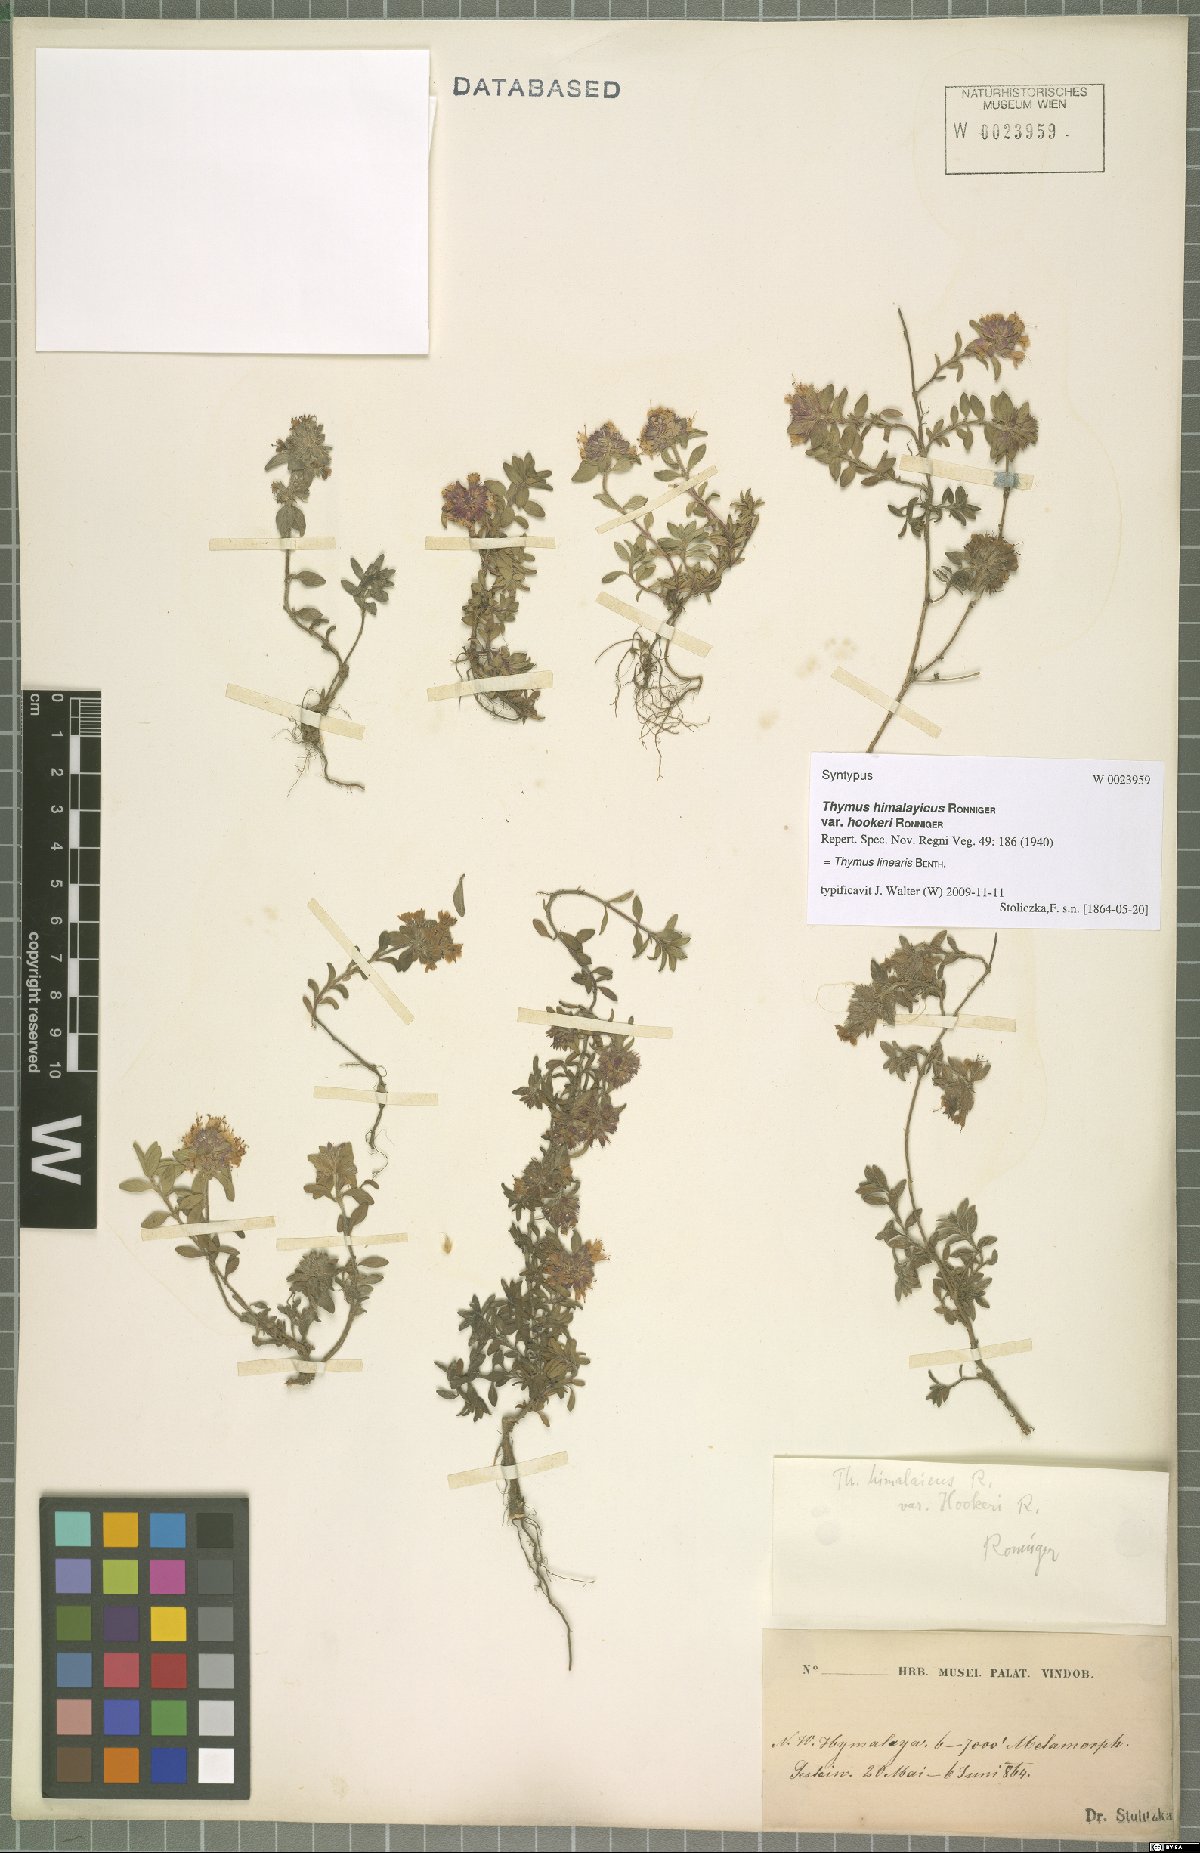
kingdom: Plantae
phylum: Tracheophyta
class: Magnoliopsida
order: Lamiales
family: Lamiaceae
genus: Thymus
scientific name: Thymus linearis
